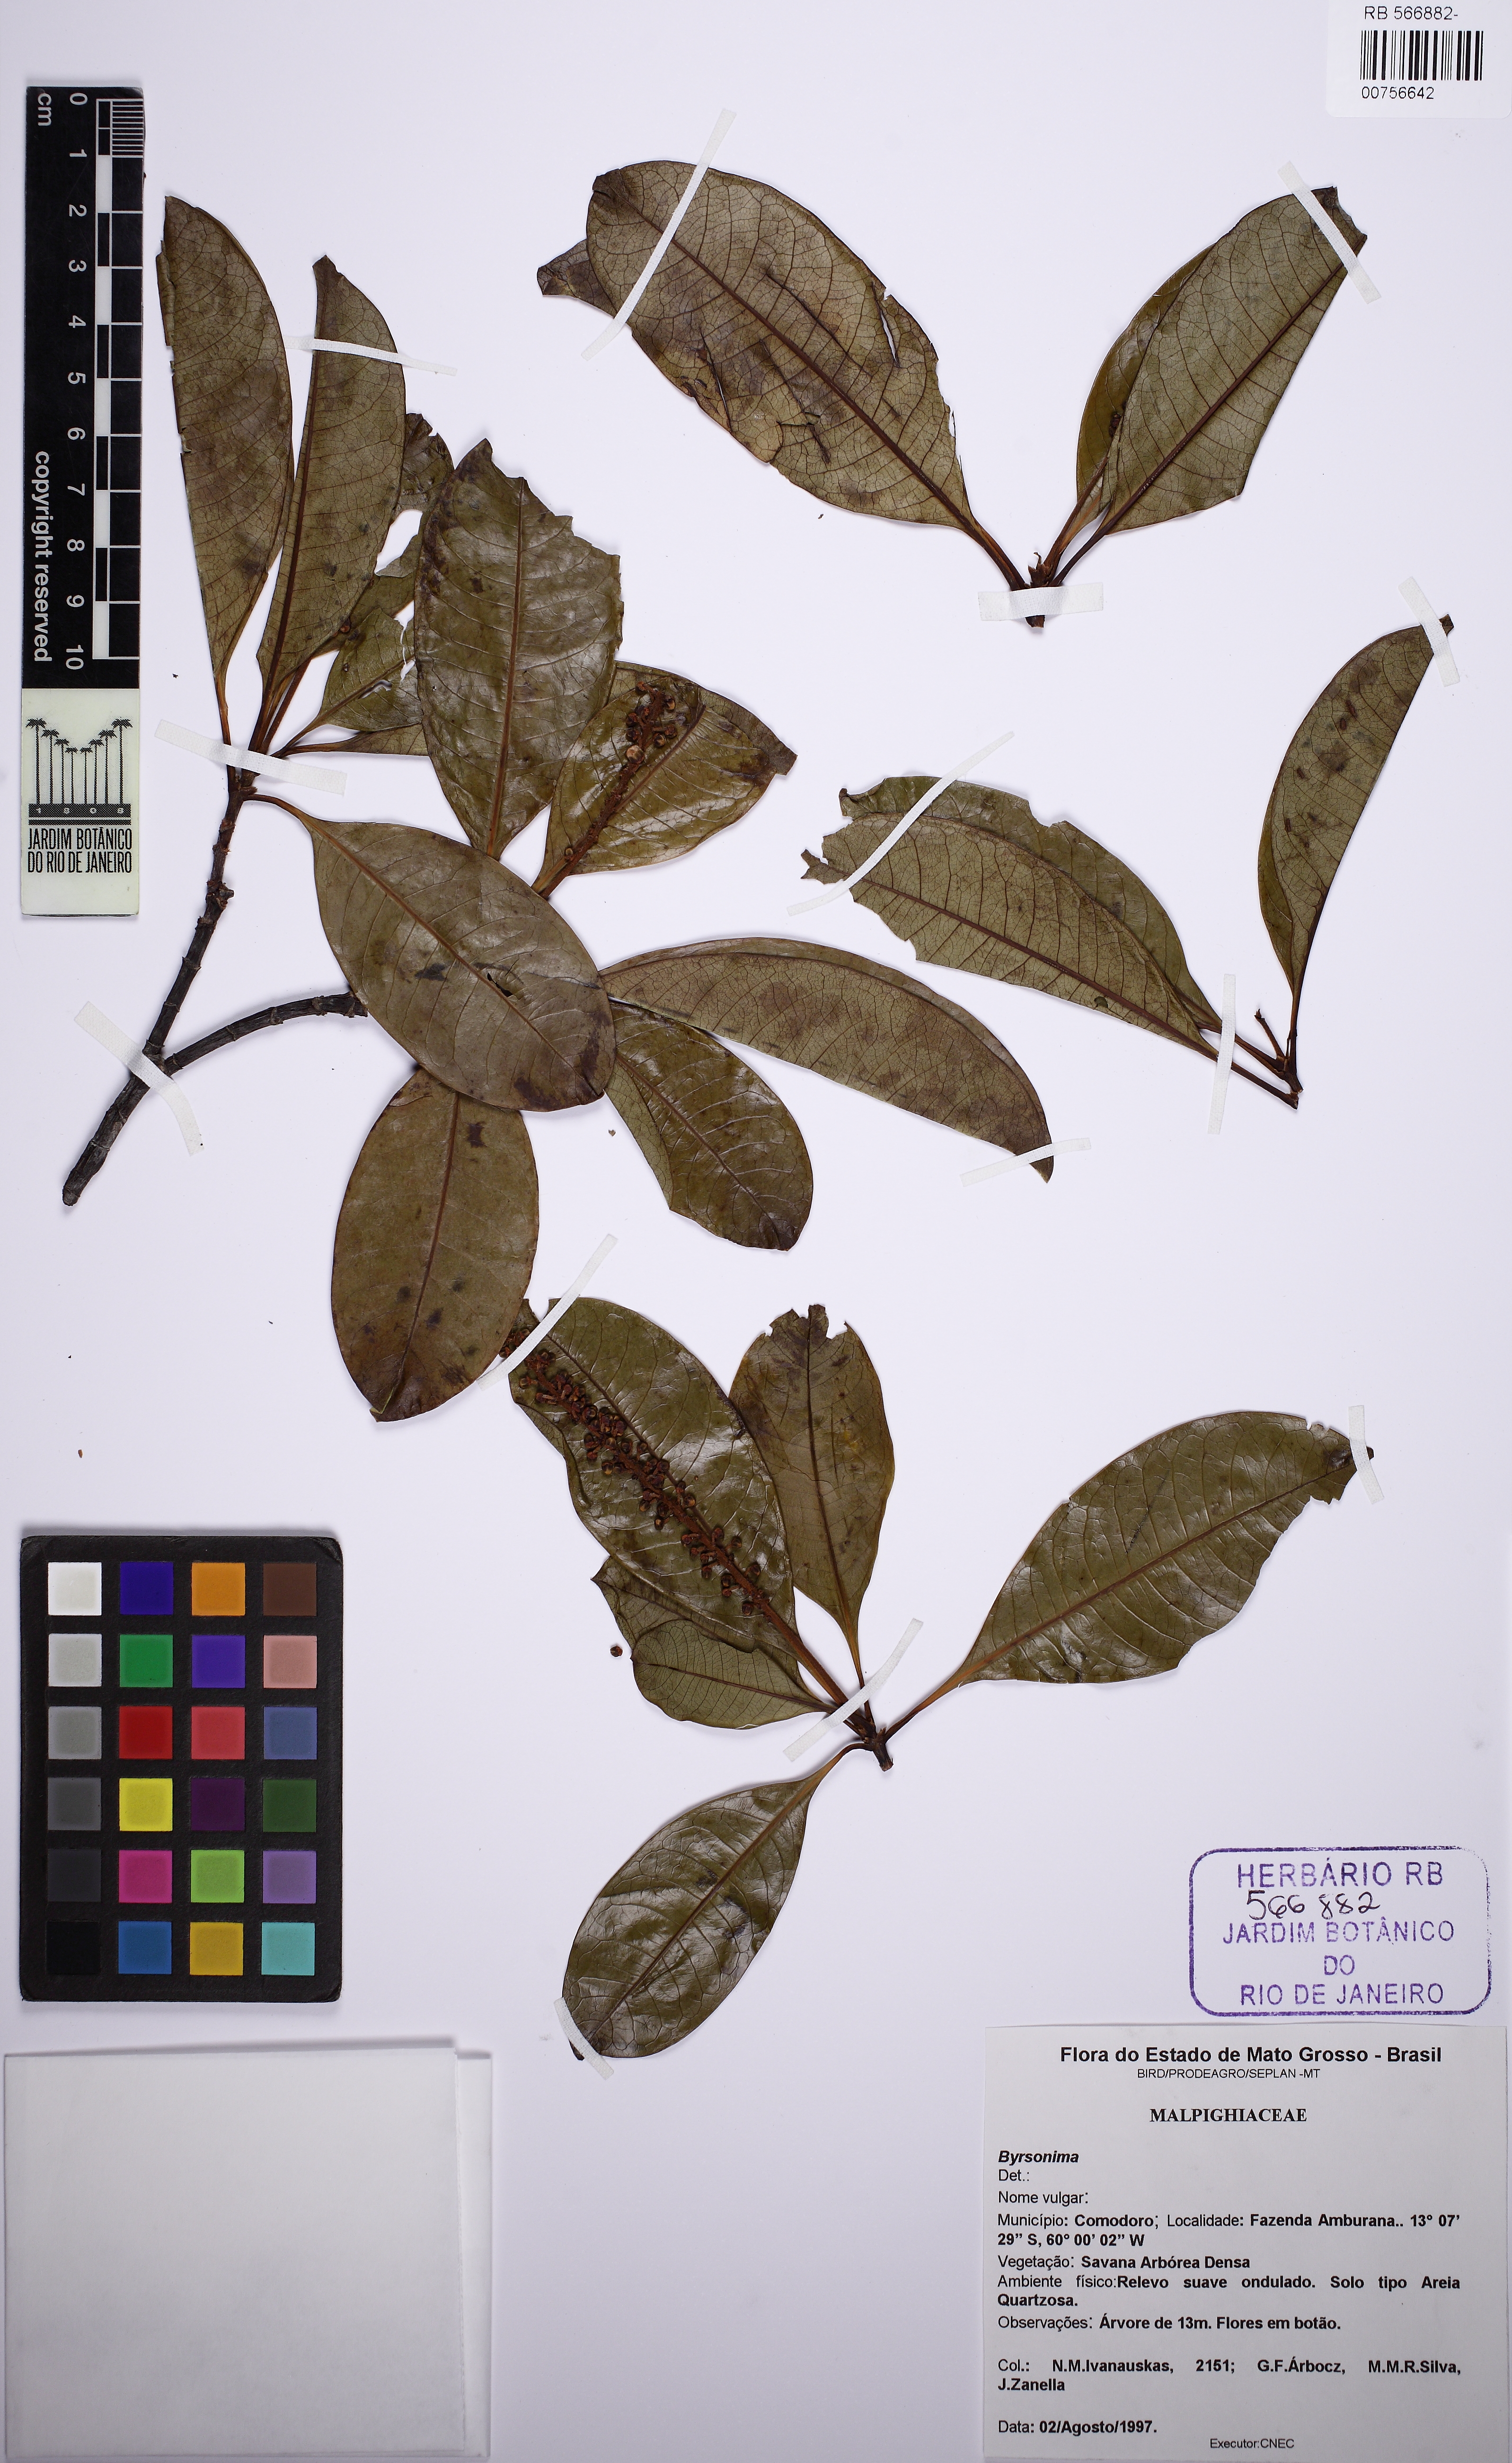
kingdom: Plantae
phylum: Tracheophyta
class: Magnoliopsida
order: Malpighiales
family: Malpighiaceae
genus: Byrsonima
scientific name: Byrsonima
